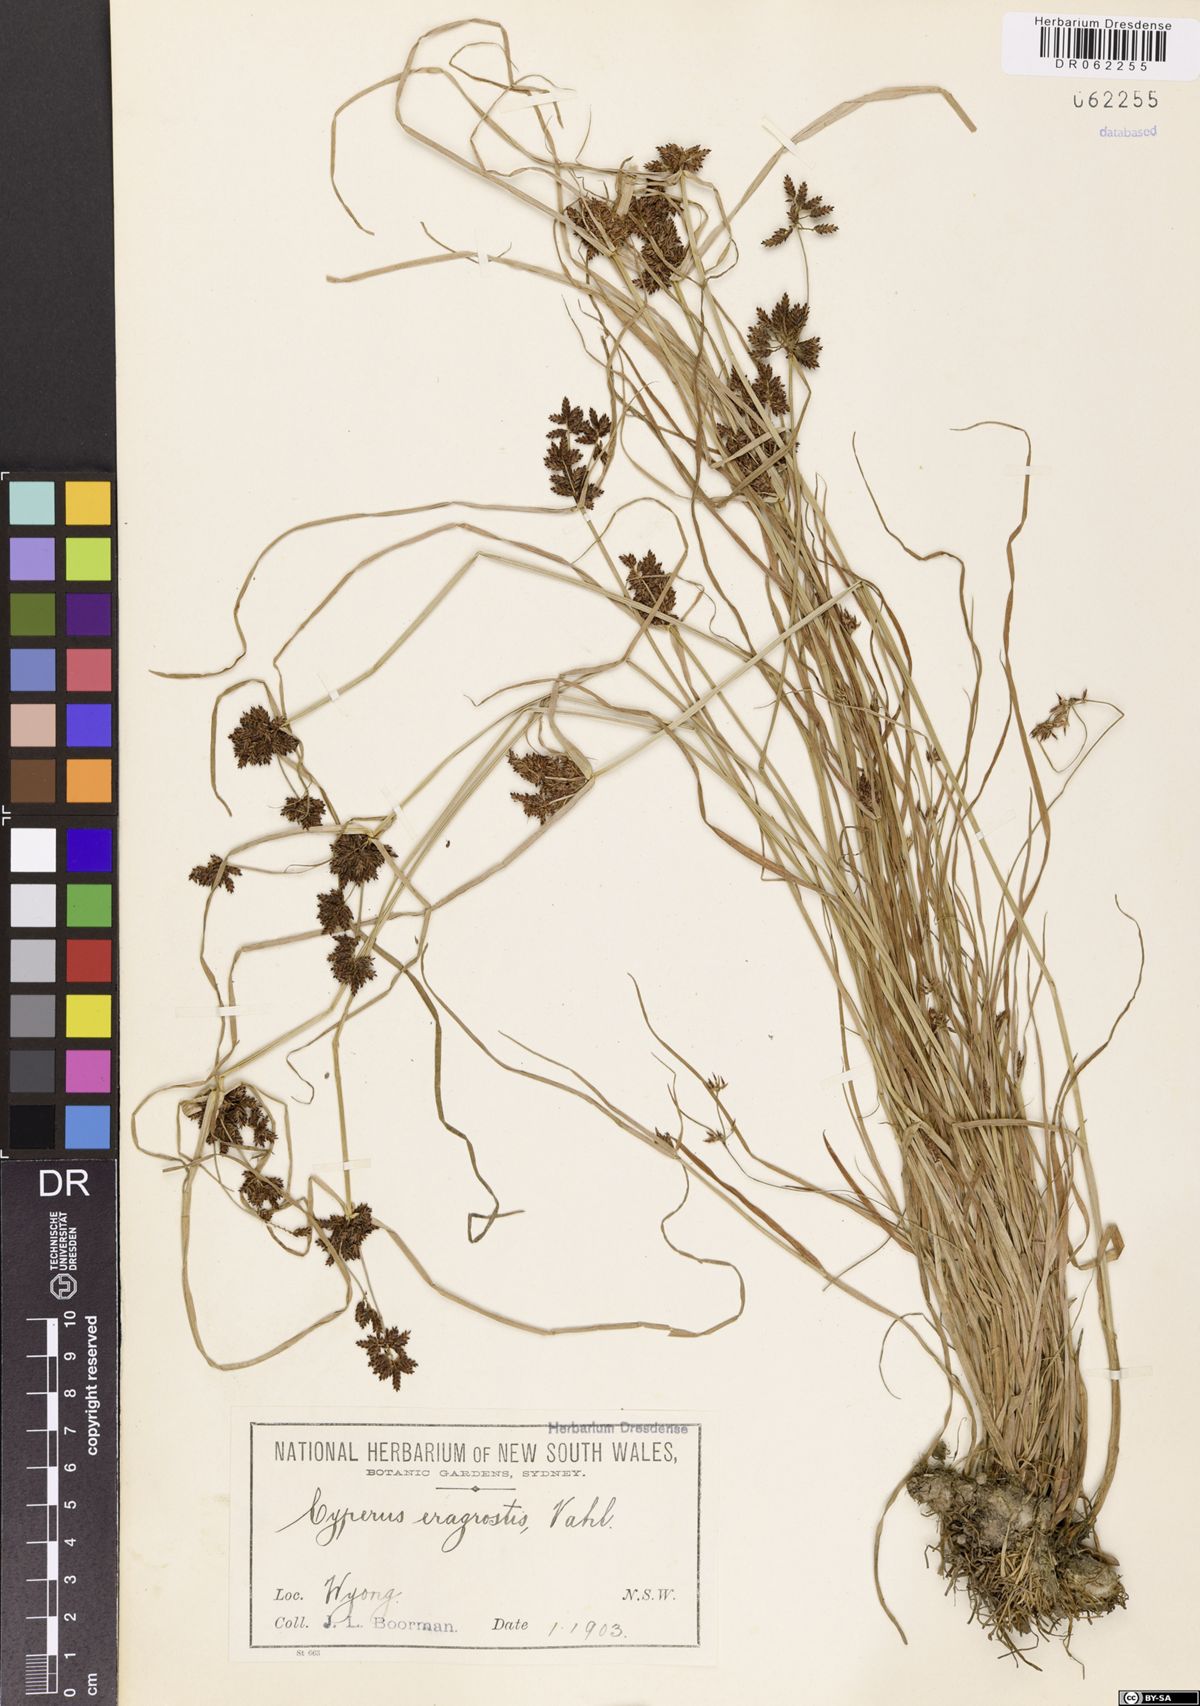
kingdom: Plantae
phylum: Tracheophyta
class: Liliopsida
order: Poales
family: Cyperaceae
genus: Cyperus
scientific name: Cyperus eragrostis
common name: Tall flatsedge
